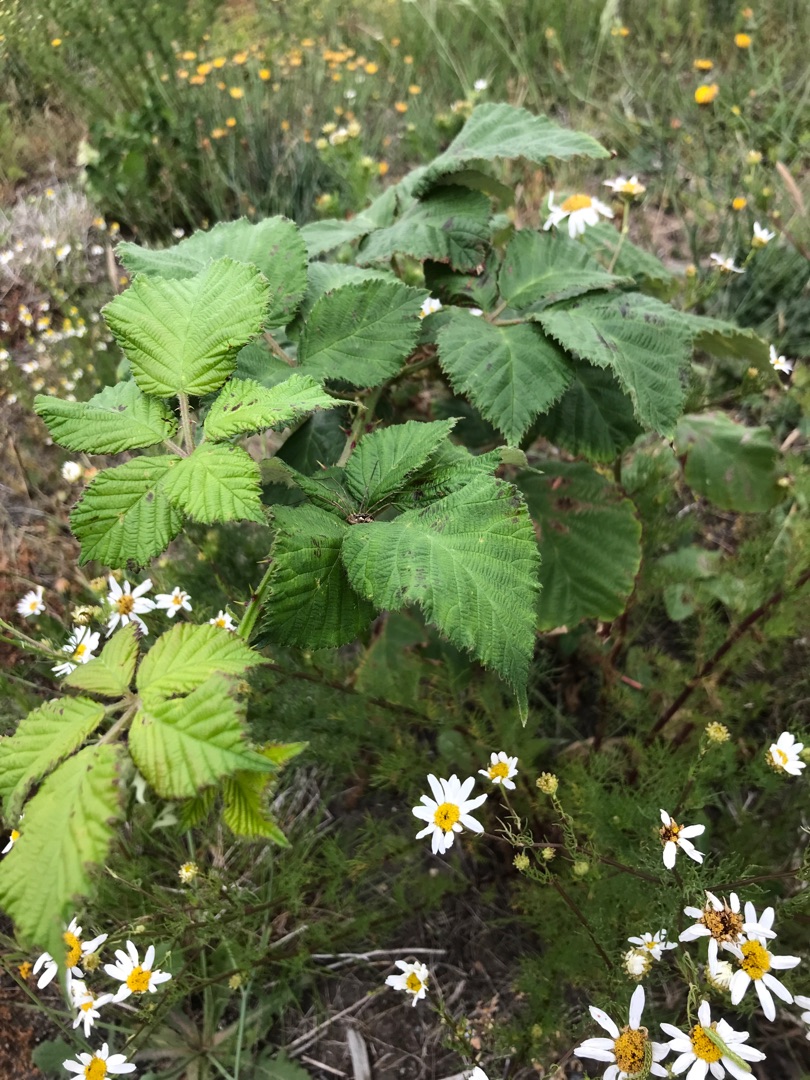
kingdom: Plantae
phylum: Tracheophyta
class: Magnoliopsida
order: Rosales
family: Rosaceae
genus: Rubus
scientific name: Rubus
